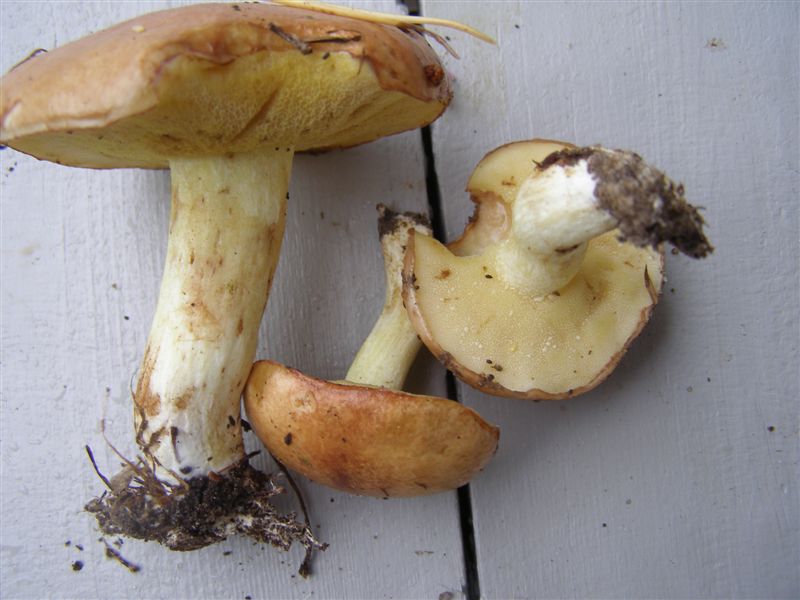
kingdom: Fungi
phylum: Basidiomycota
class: Agaricomycetes
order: Boletales
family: Suillaceae
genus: Suillus
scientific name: Suillus granulatus
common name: kornet slimrørhat
